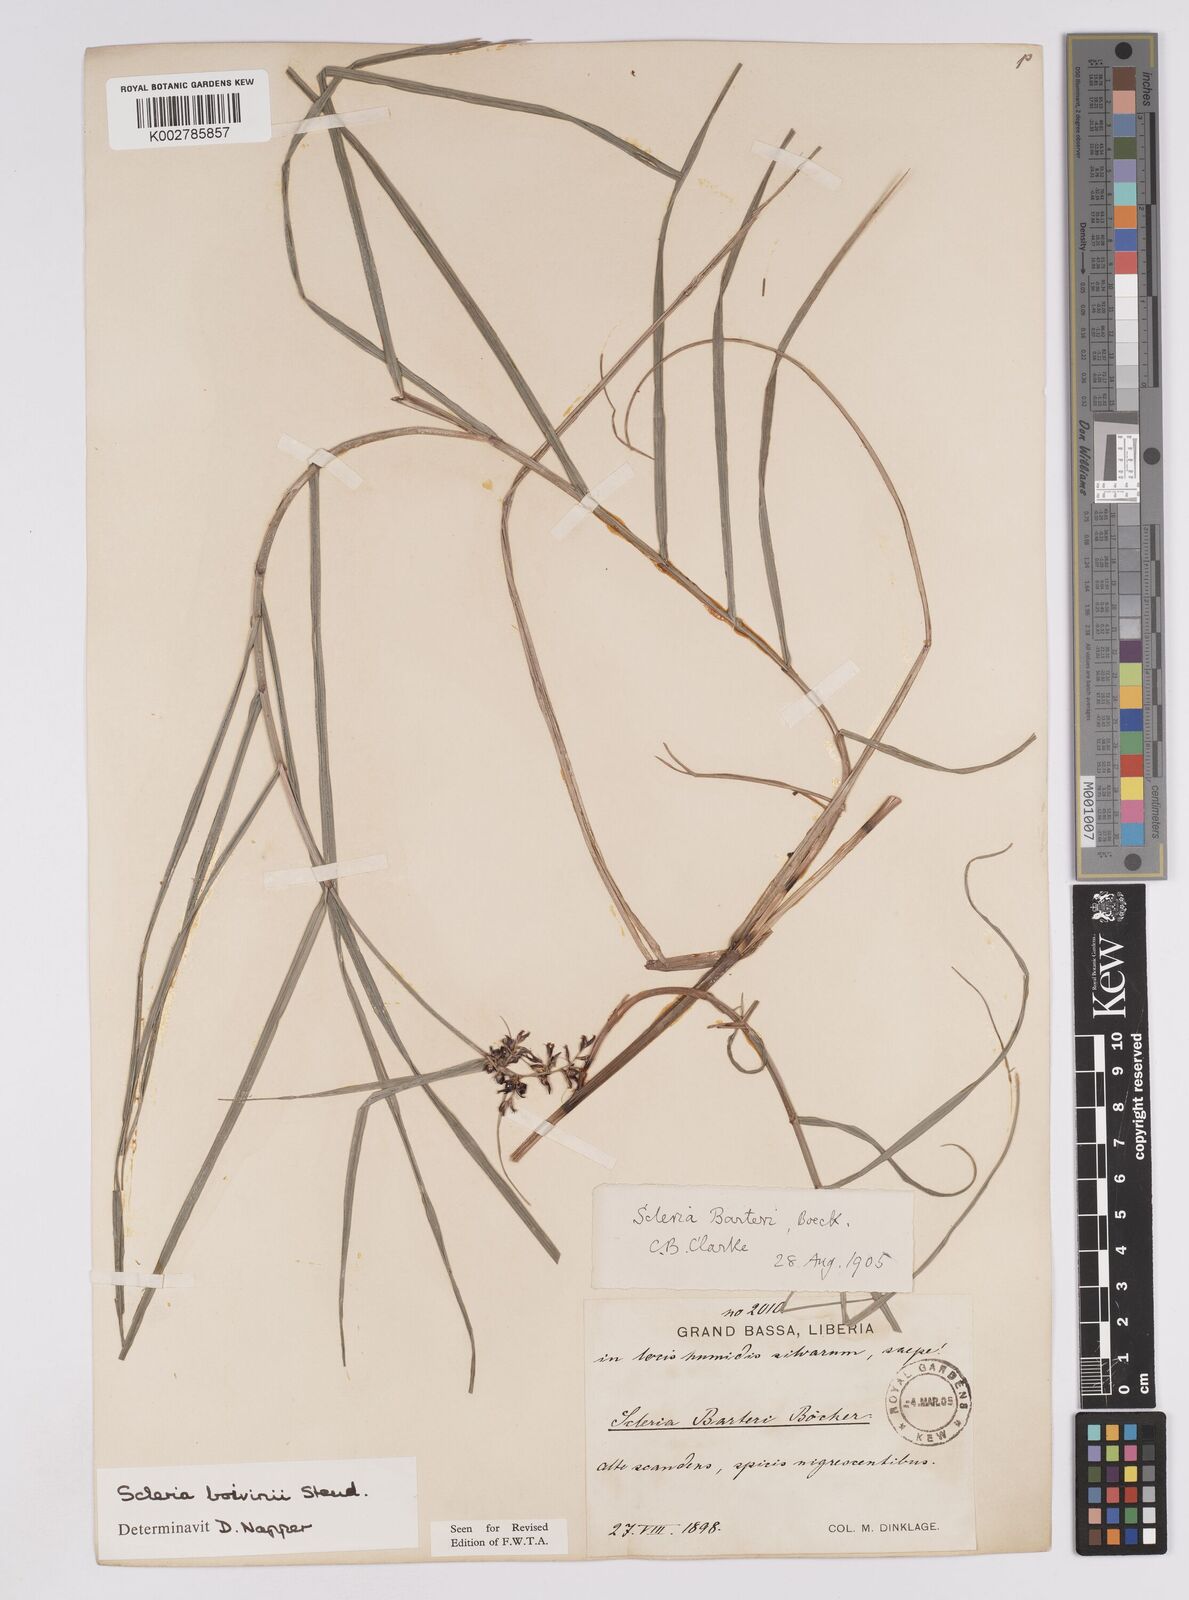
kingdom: Plantae
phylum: Tracheophyta
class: Liliopsida
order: Poales
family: Cyperaceae
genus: Scleria
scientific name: Scleria boivinii
